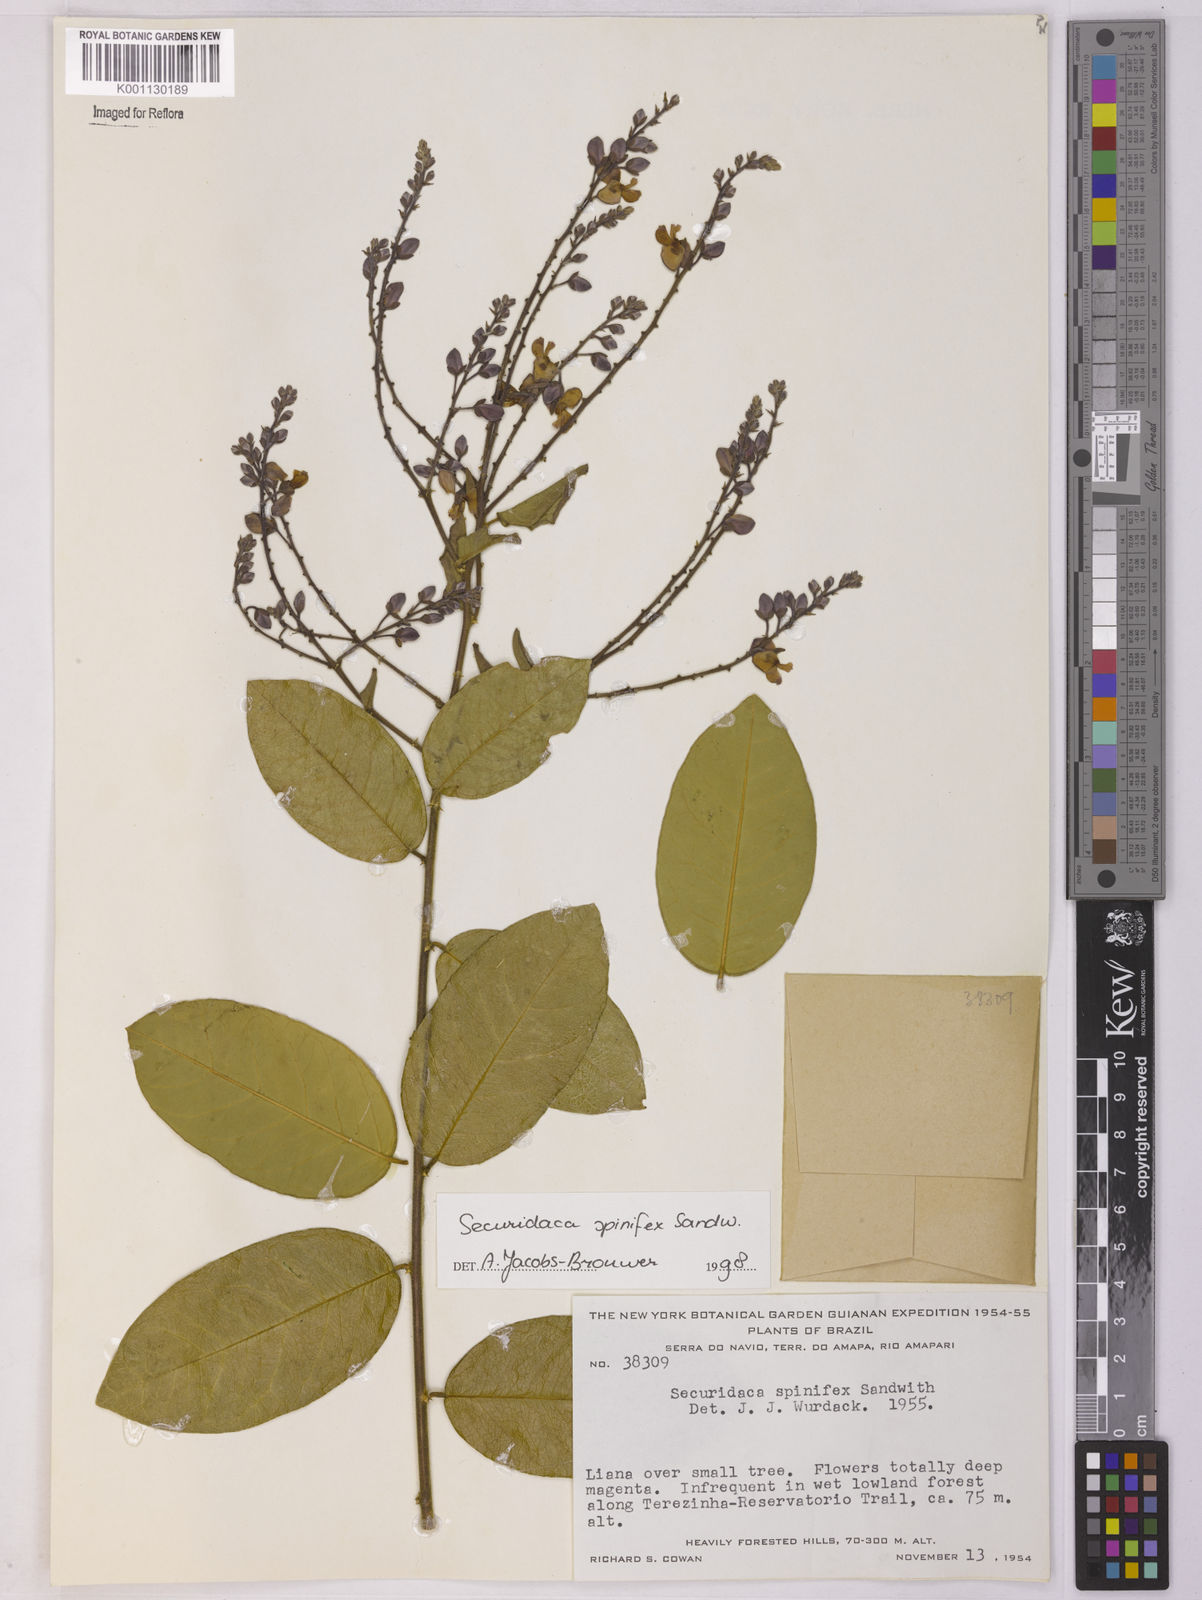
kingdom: Plantae
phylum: Tracheophyta
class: Magnoliopsida
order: Fabales
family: Polygalaceae
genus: Securidaca
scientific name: Securidaca spinifex
